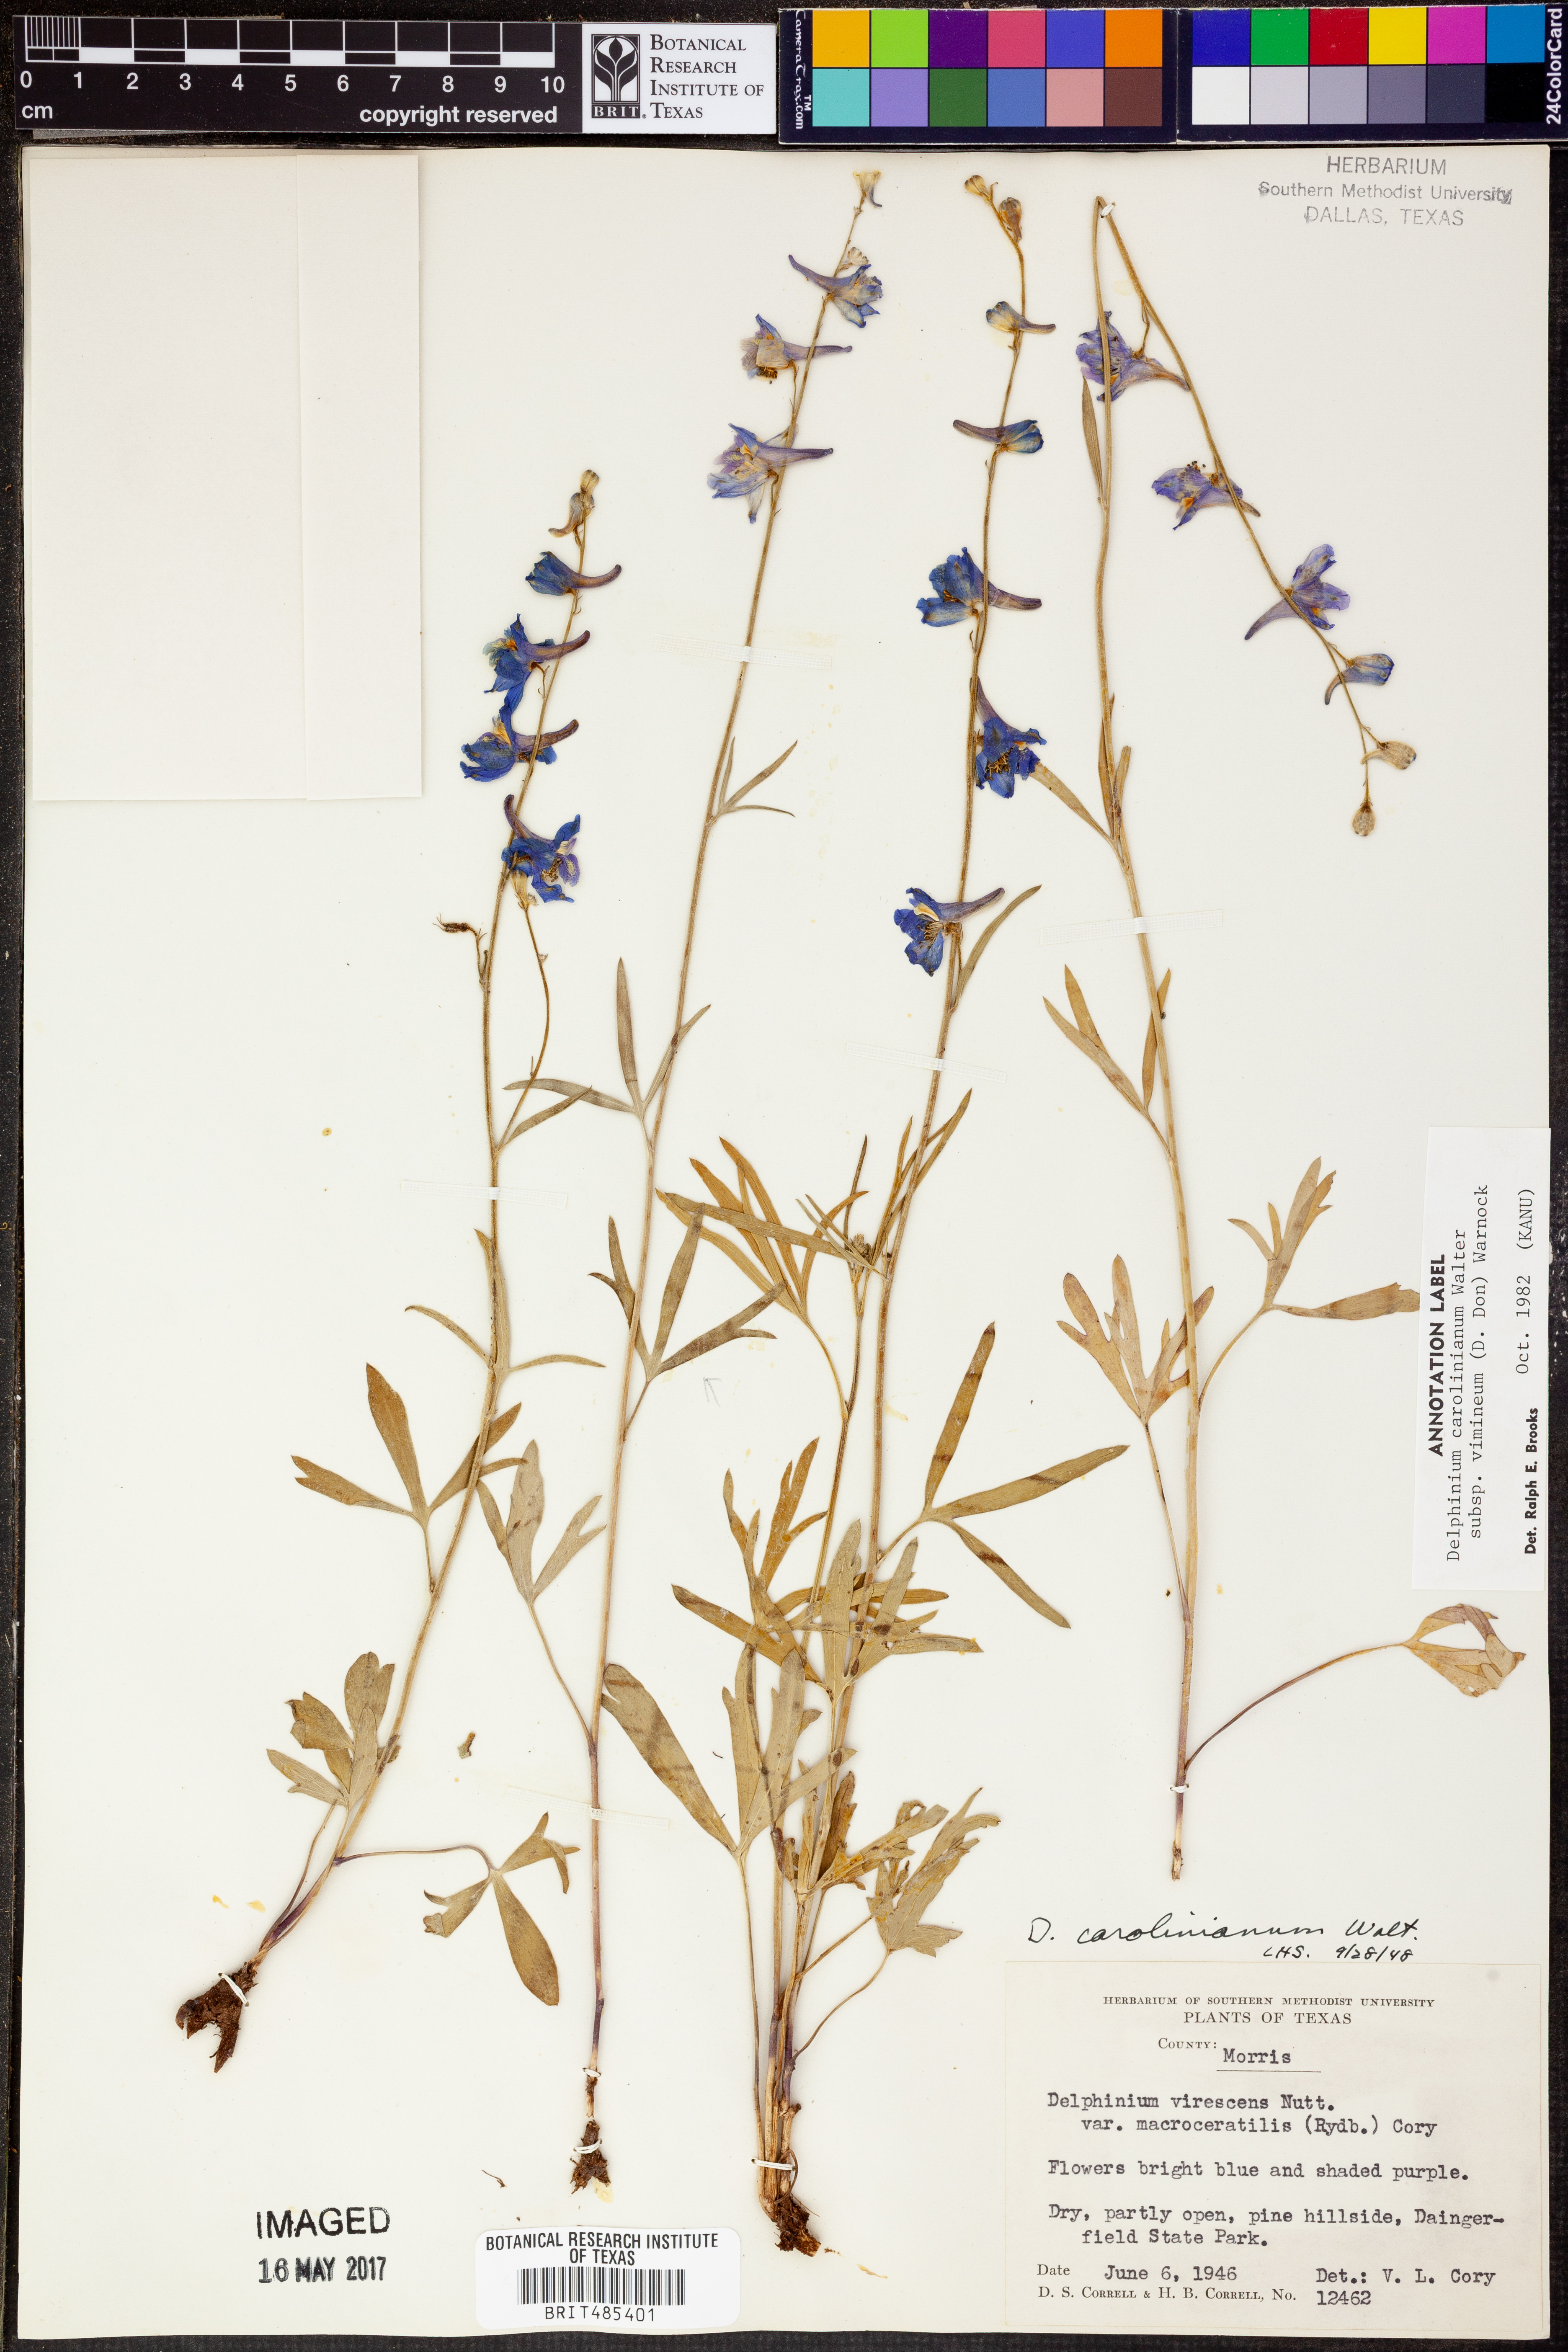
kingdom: Plantae
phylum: Tracheophyta
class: Magnoliopsida
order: Ranunculales
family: Ranunculaceae
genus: Delphinium
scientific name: Delphinium carolinianum
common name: Carolina larkspur
